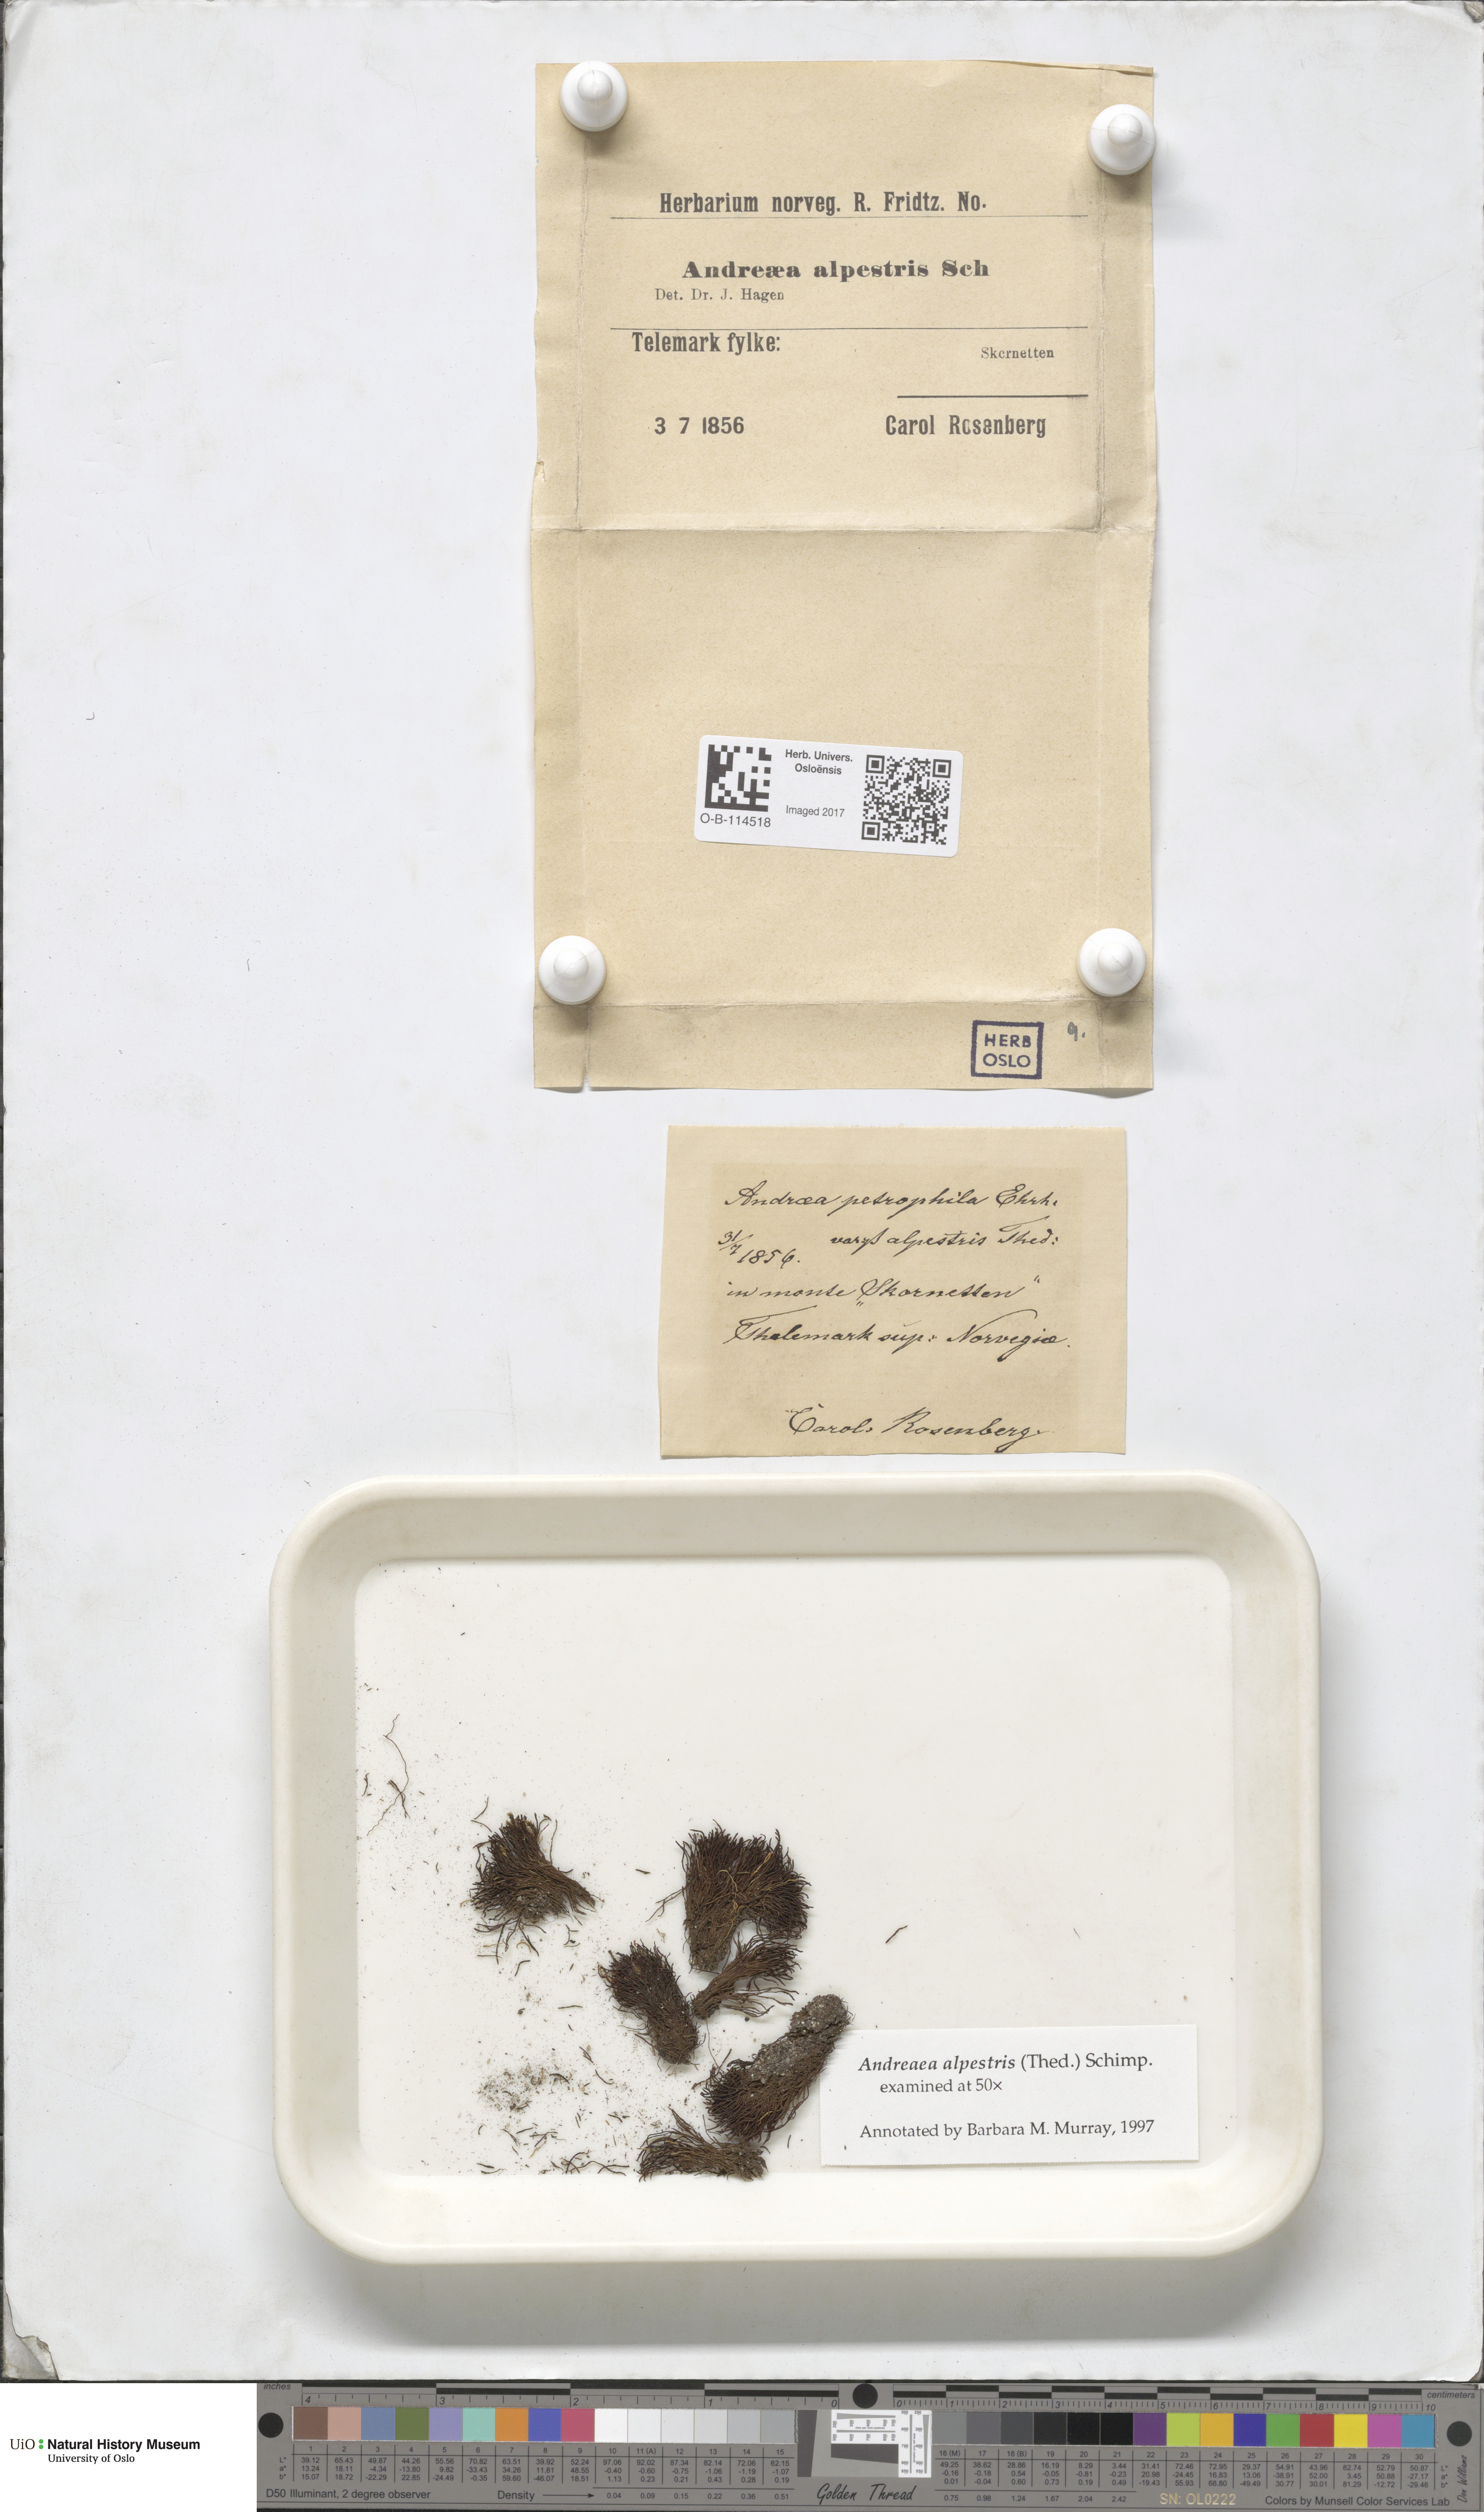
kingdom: Plantae
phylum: Bryophyta
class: Andreaeopsida
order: Andreaeales
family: Andreaeaceae
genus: Andreaea
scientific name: Andreaea alpestris
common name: Slender rock-moss
